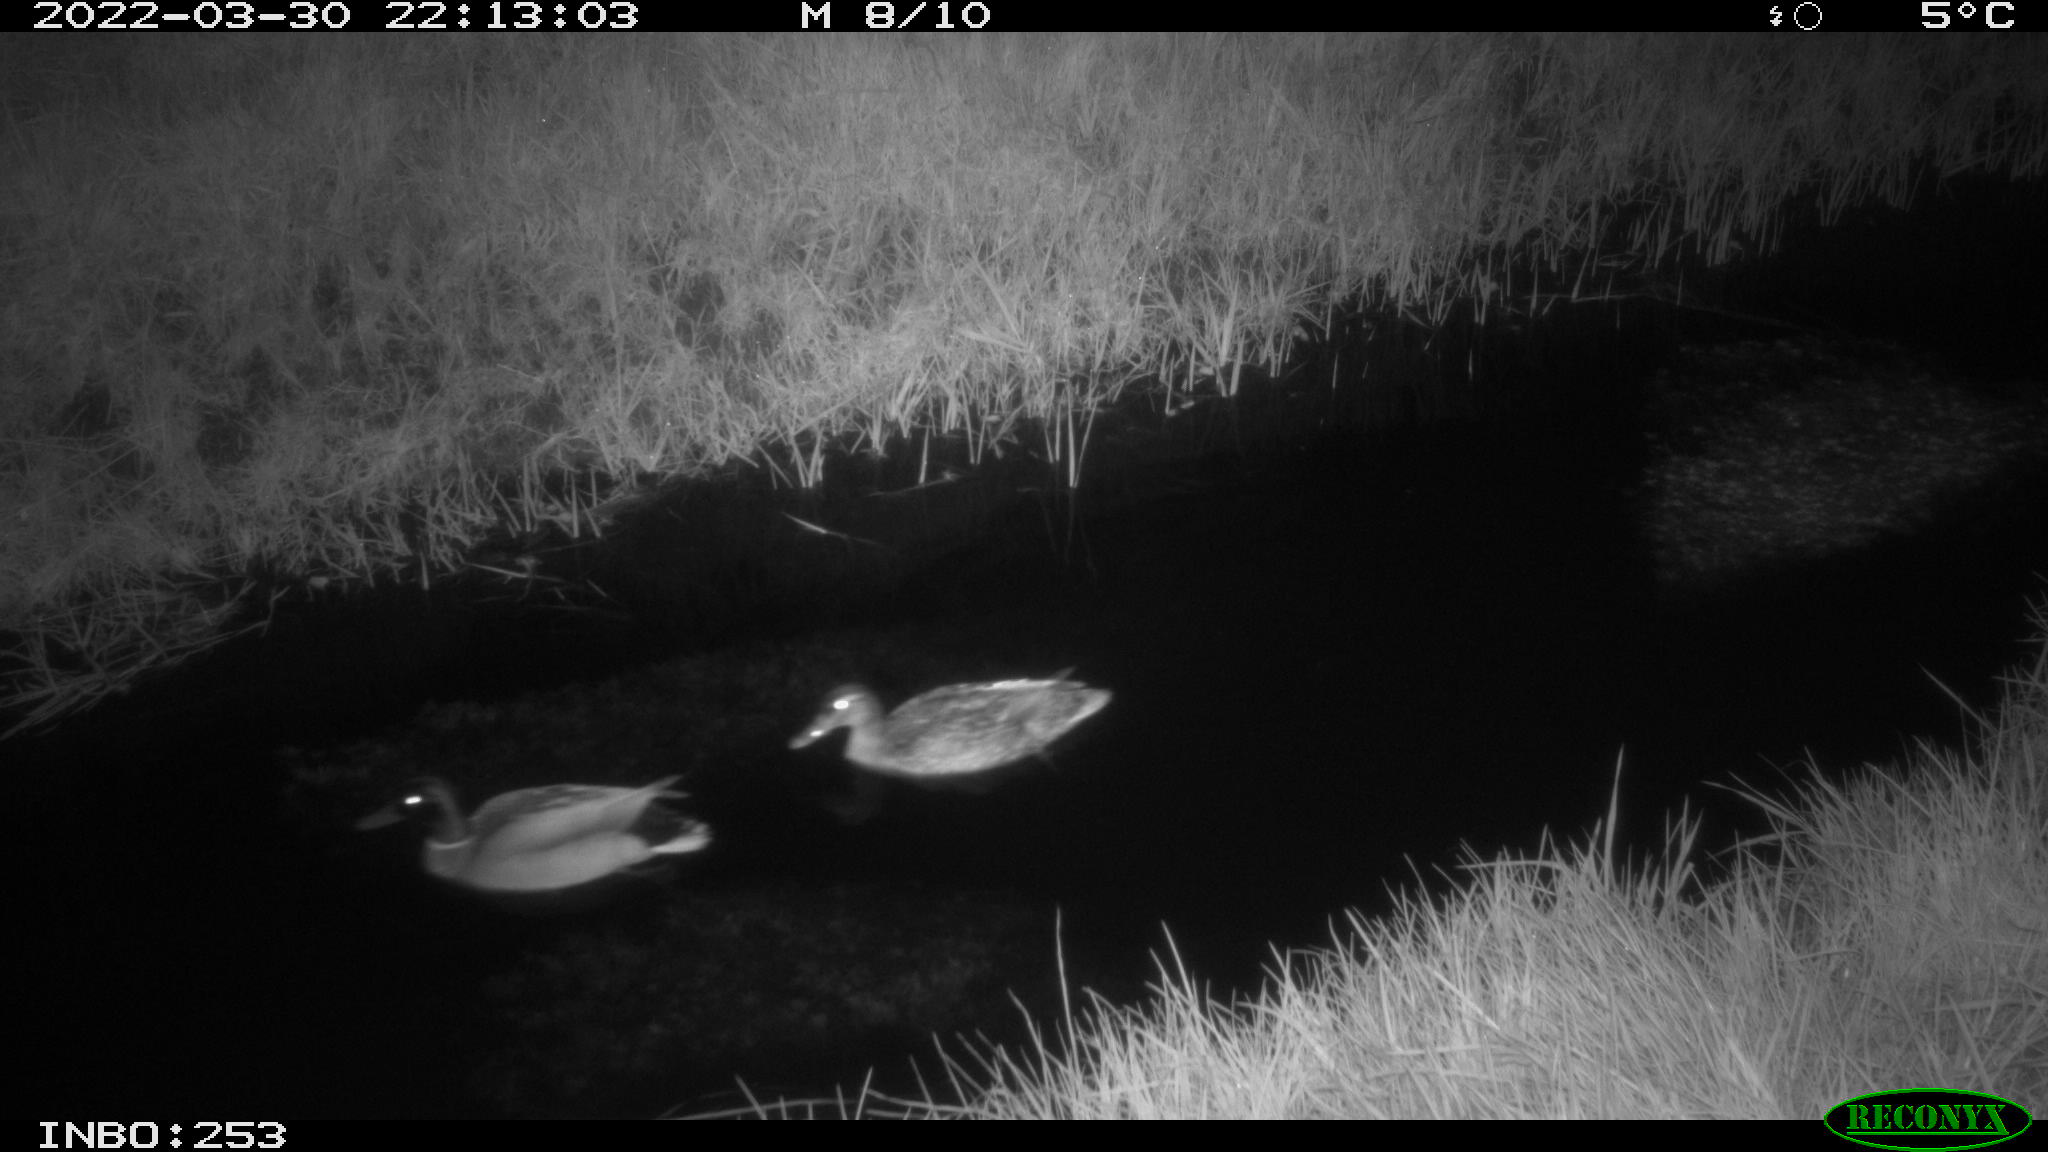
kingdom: Animalia
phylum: Chordata
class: Aves
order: Anseriformes
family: Anatidae
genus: Anas
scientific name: Anas platyrhynchos
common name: Mallard
